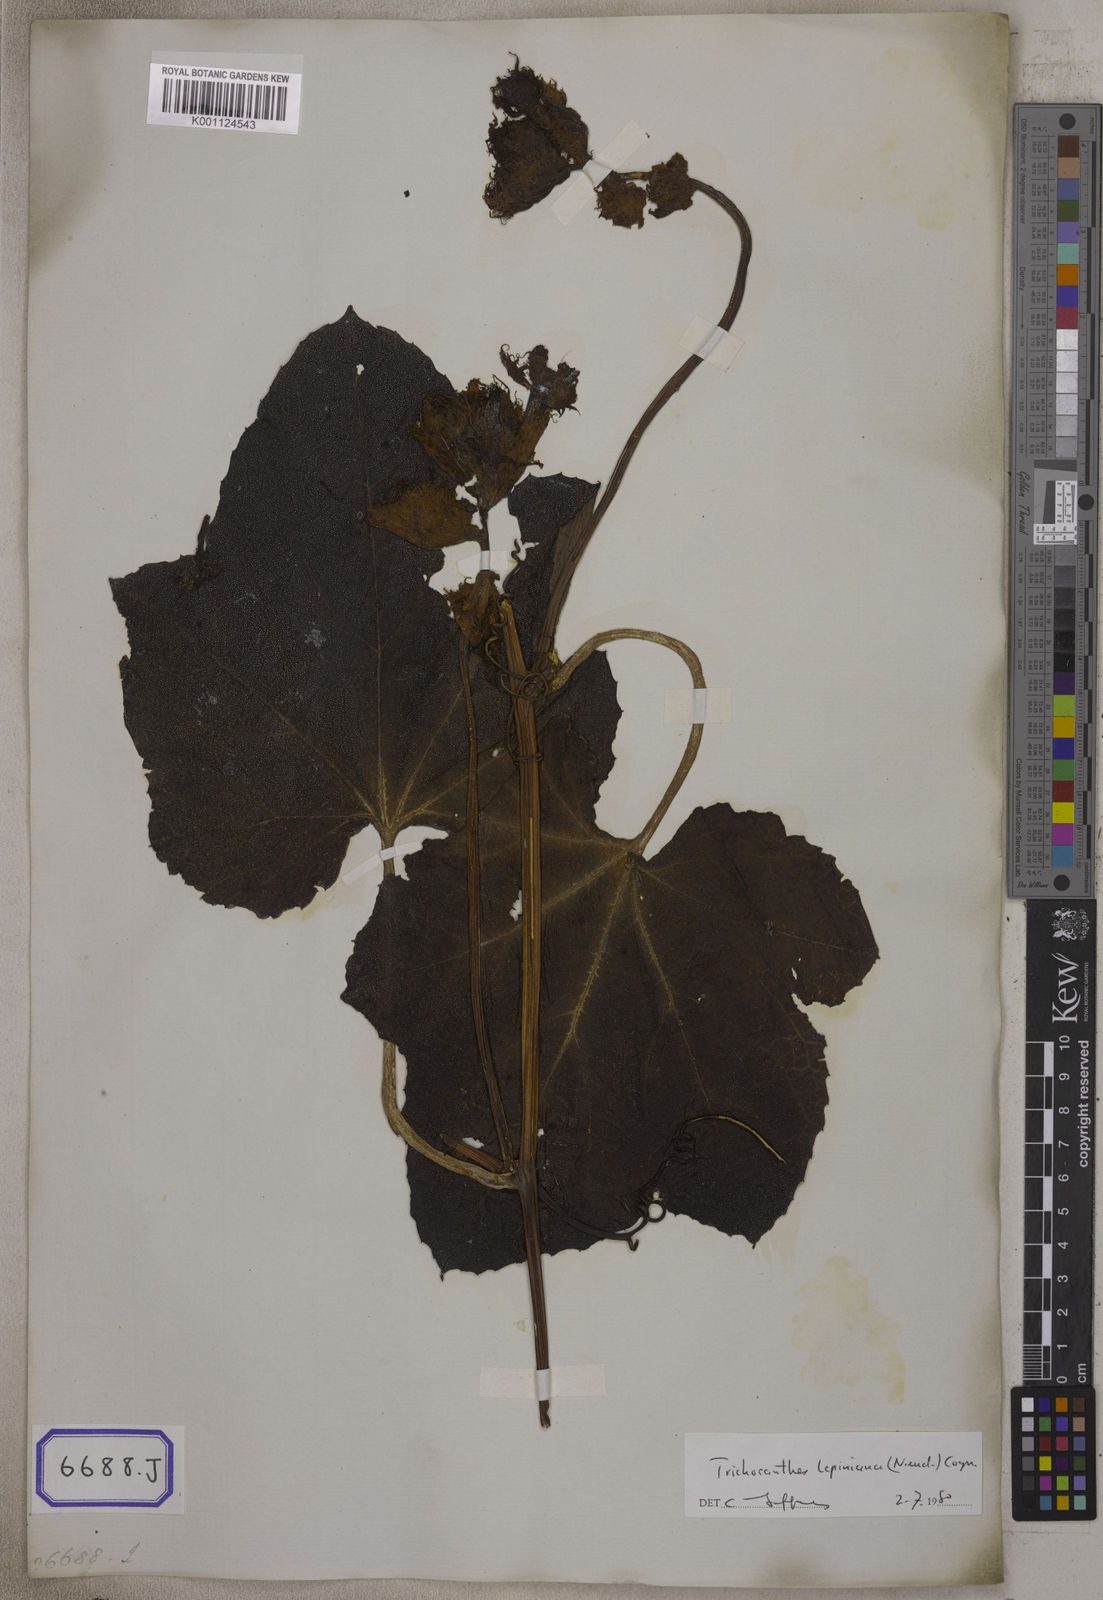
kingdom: Plantae
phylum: Tracheophyta
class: Magnoliopsida
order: Cucurbitales
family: Cucurbitaceae
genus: Trichosanthes
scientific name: Trichosanthes
